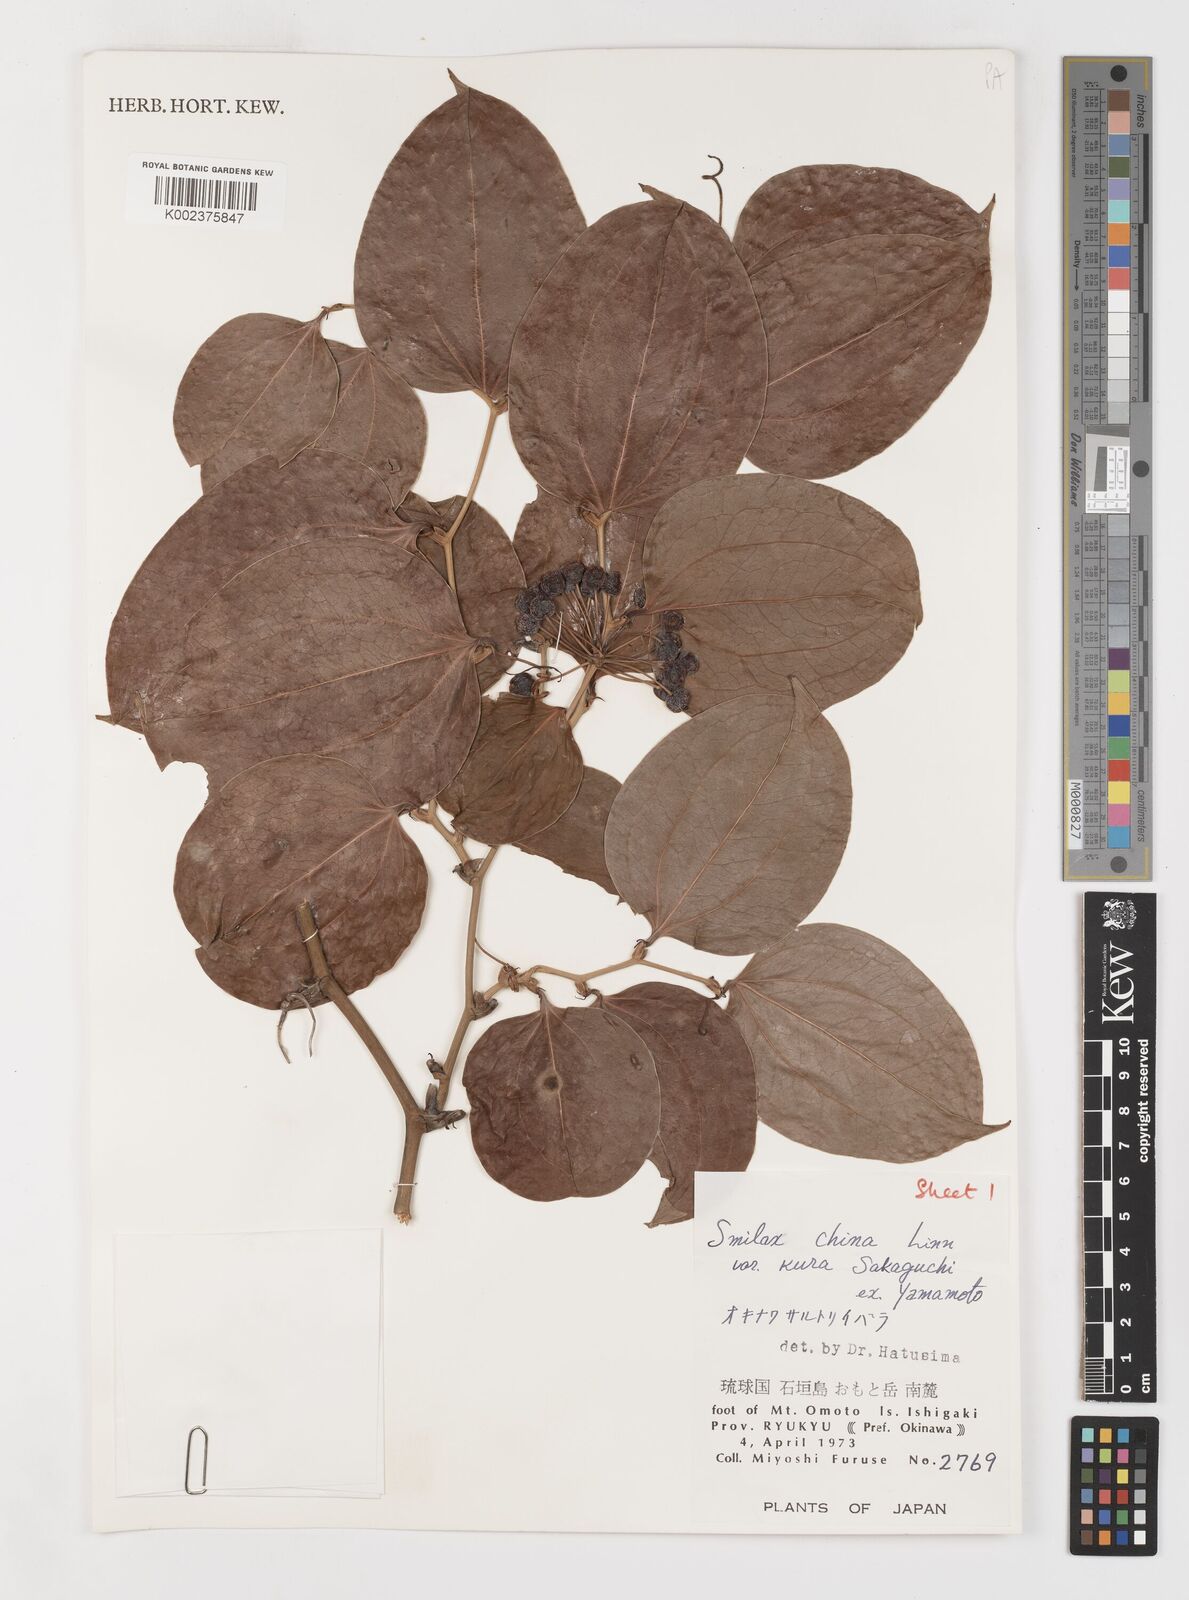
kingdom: Plantae
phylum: Tracheophyta
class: Liliopsida
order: Liliales
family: Smilacaceae
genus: Smilax
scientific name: Smilax china
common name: Chinaroot
